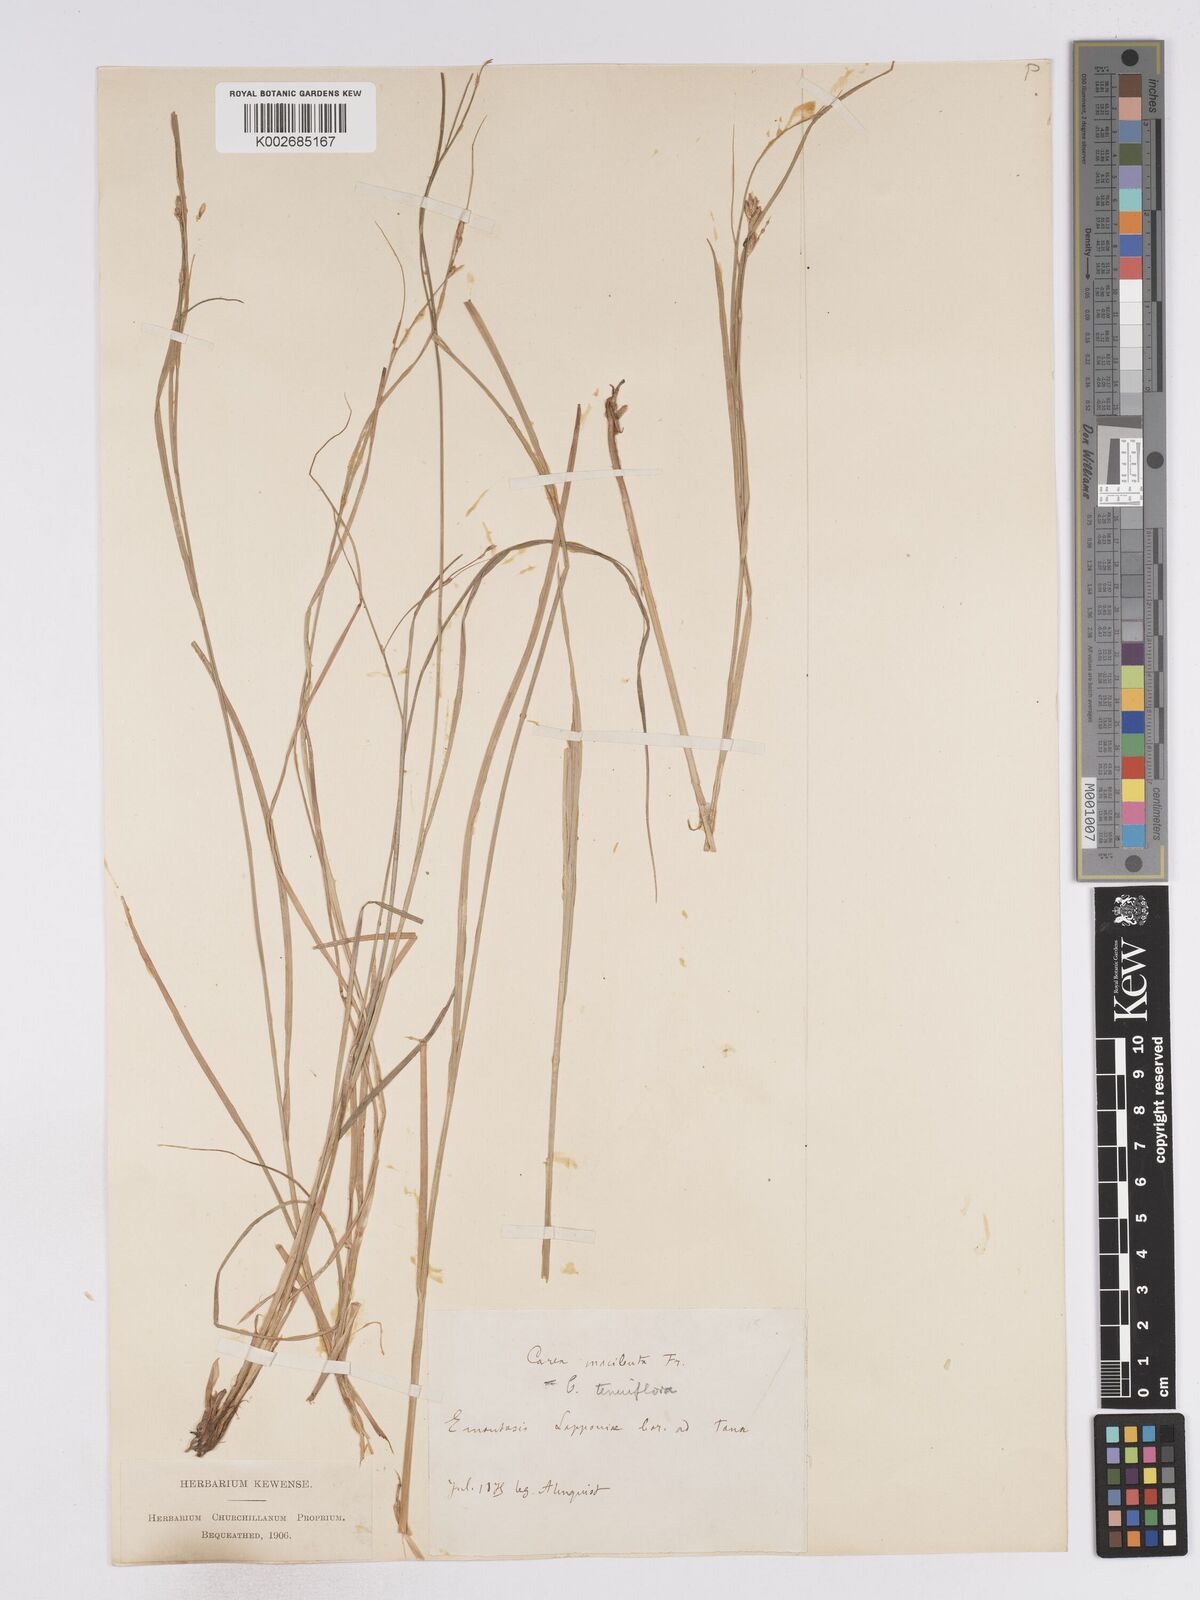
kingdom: Plantae
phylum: Tracheophyta
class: Liliopsida
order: Poales
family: Cyperaceae
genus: Carex
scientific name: Carex tenuiflora
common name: Sparse-flowered sedge
